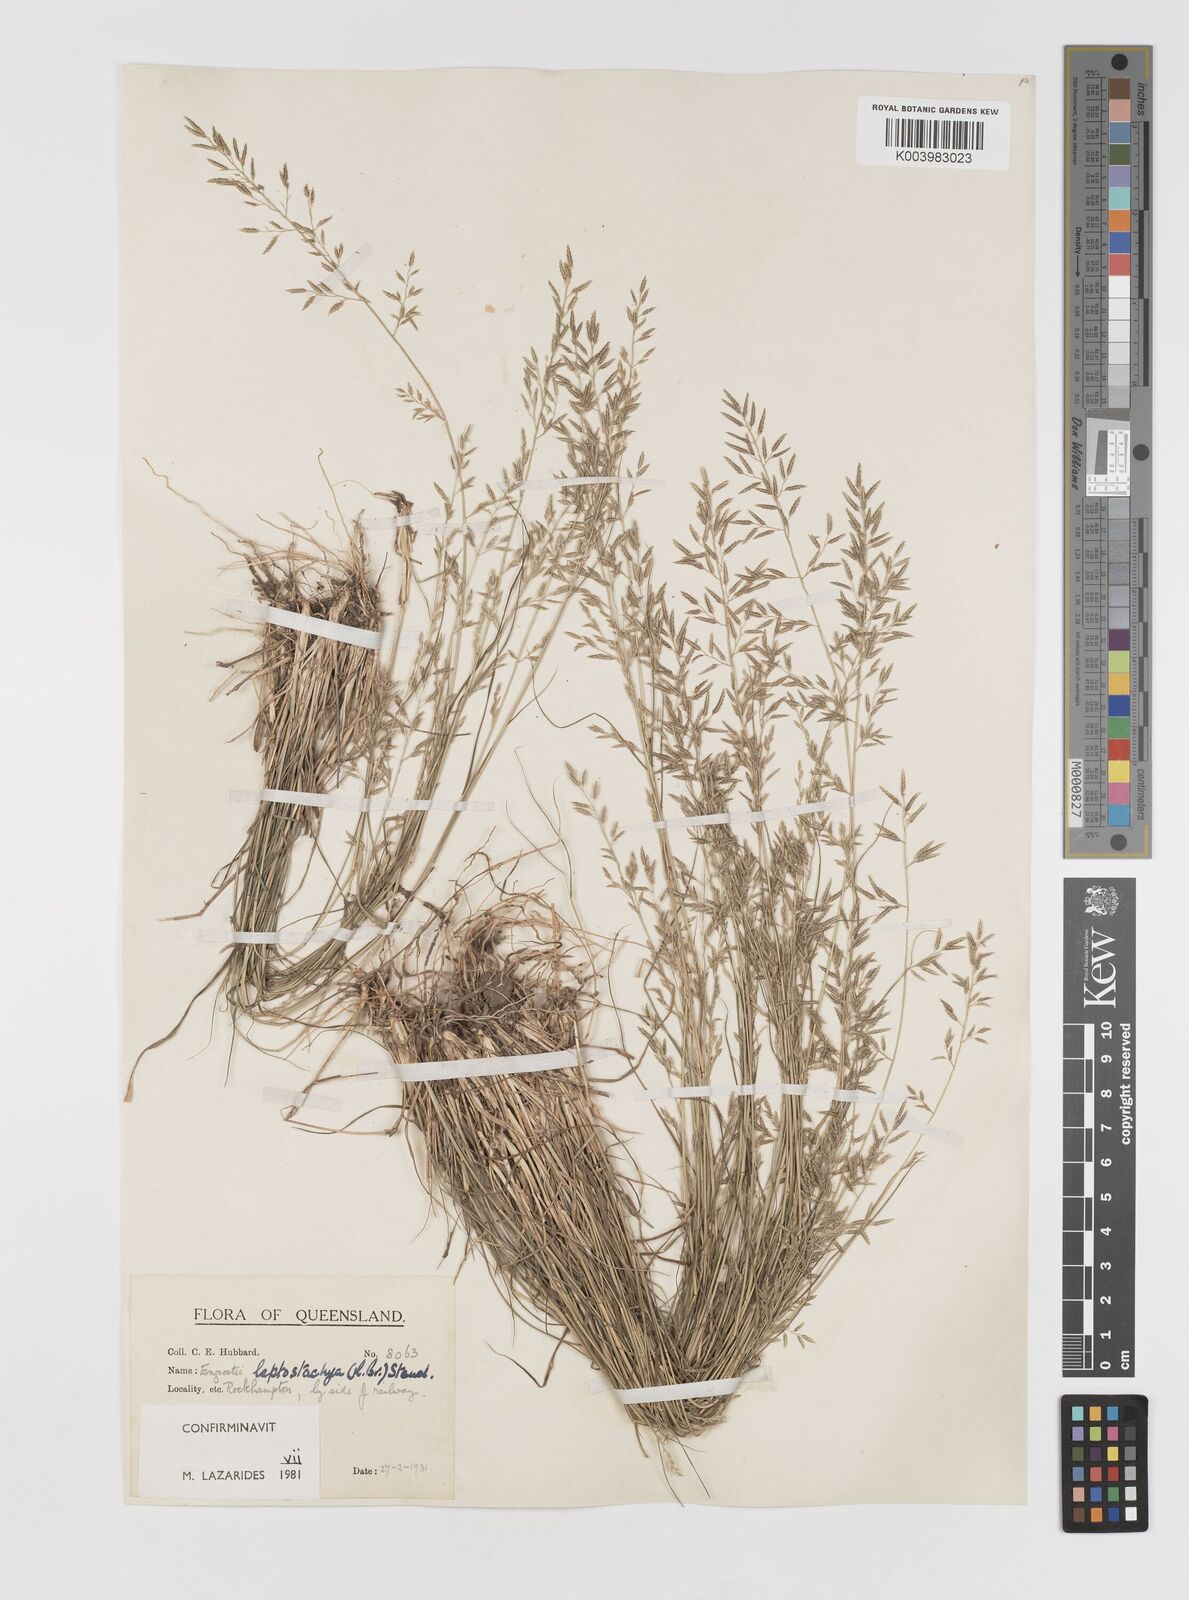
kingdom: Plantae
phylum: Tracheophyta
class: Liliopsida
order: Poales
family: Poaceae
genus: Eragrostis
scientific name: Eragrostis leptostachya
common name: Australian lovegrass
